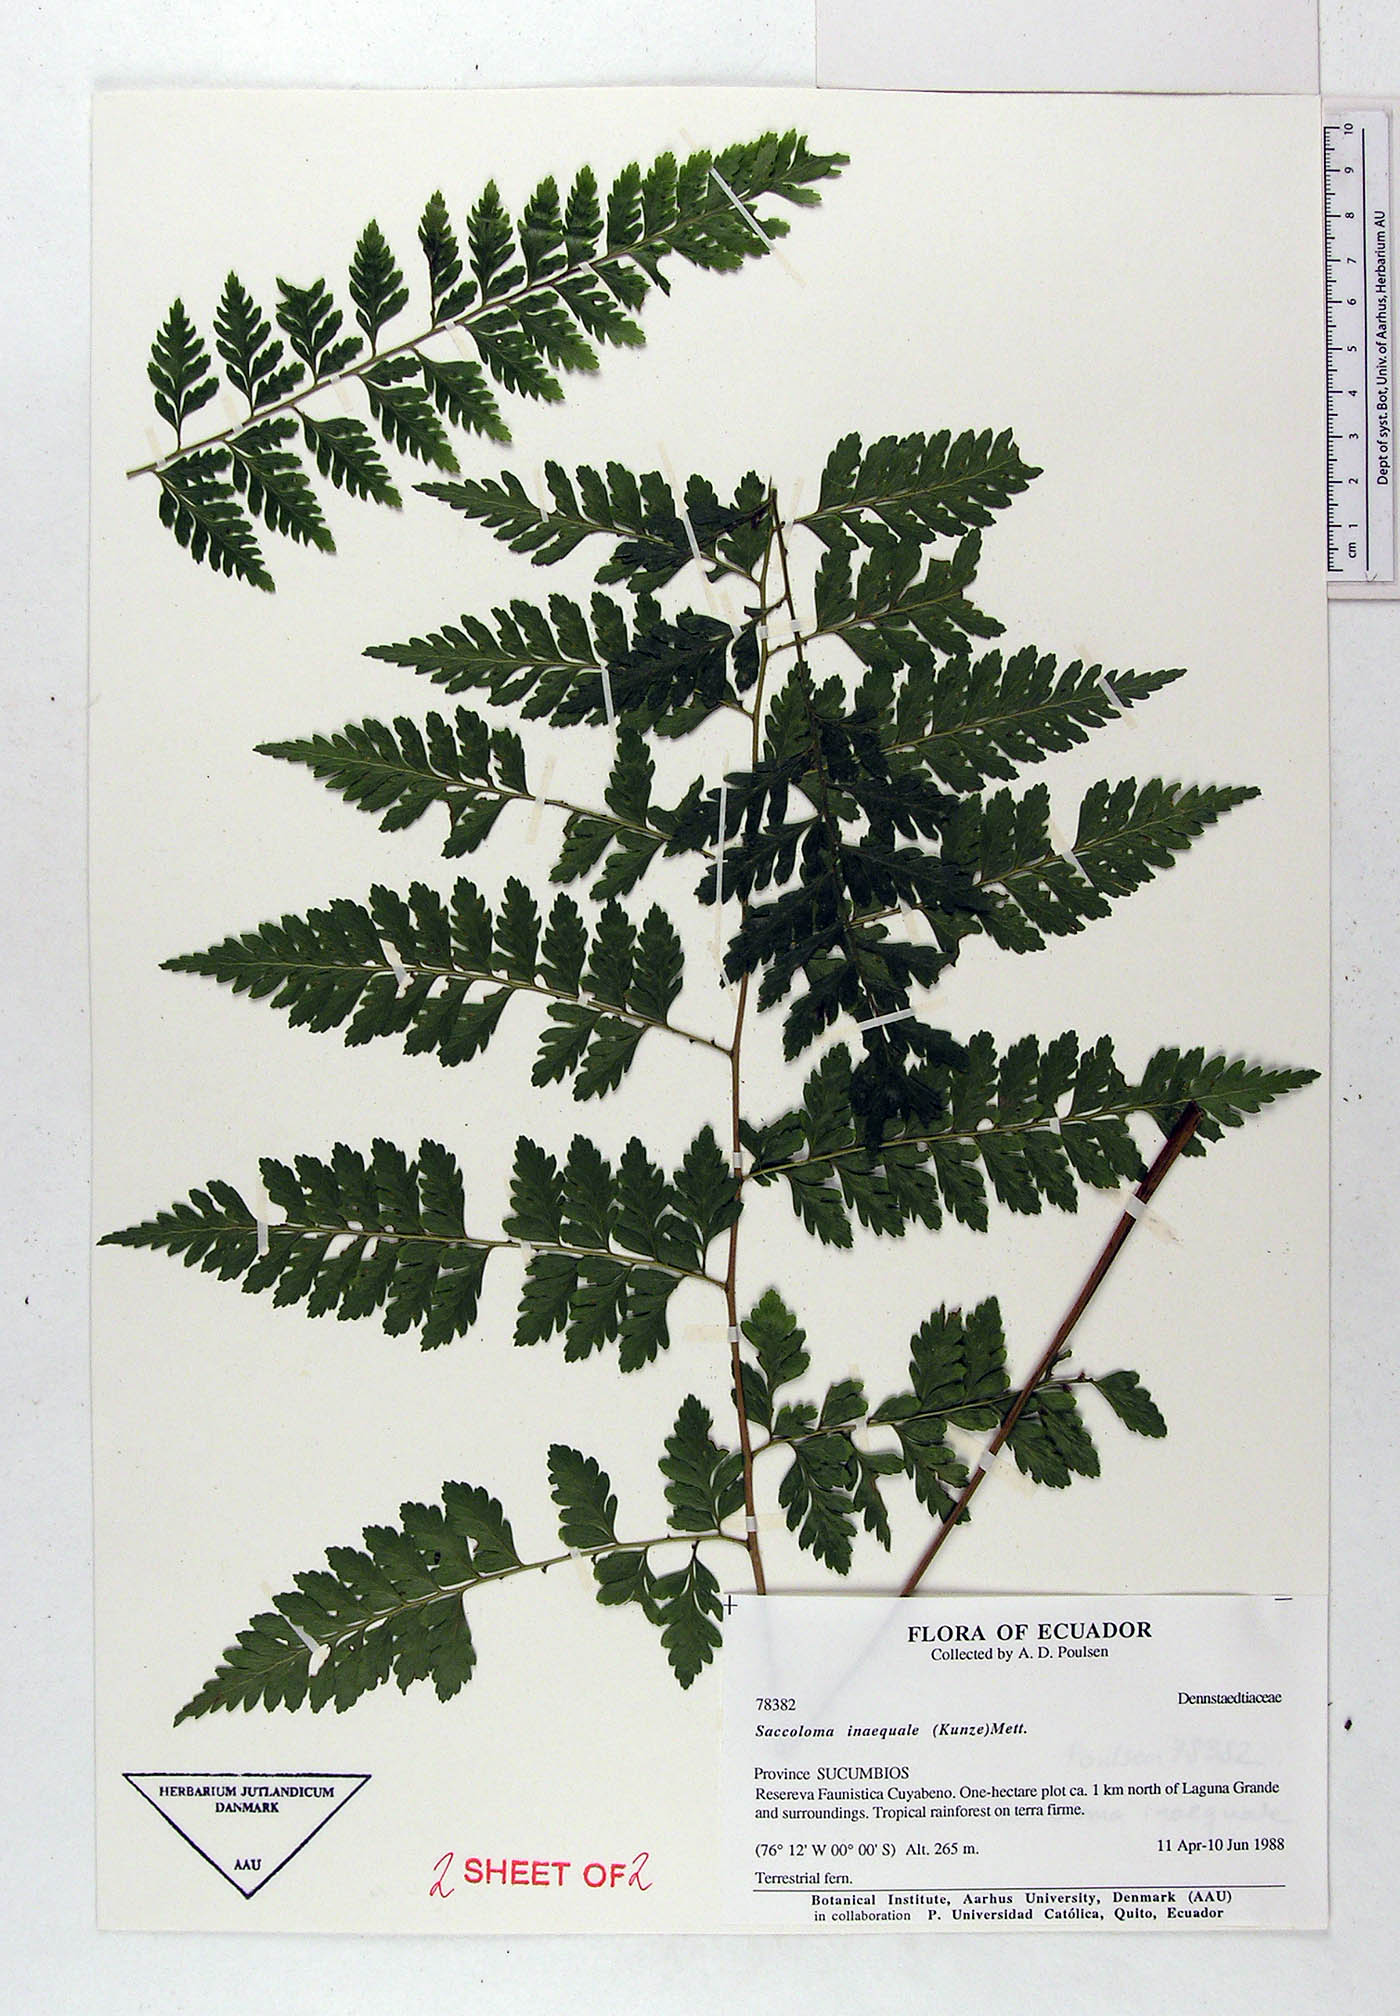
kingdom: Plantae
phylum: Tracheophyta
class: Polypodiopsida
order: Polypodiales
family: Saccolomataceae
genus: Saccoloma
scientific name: Saccoloma inaequale
